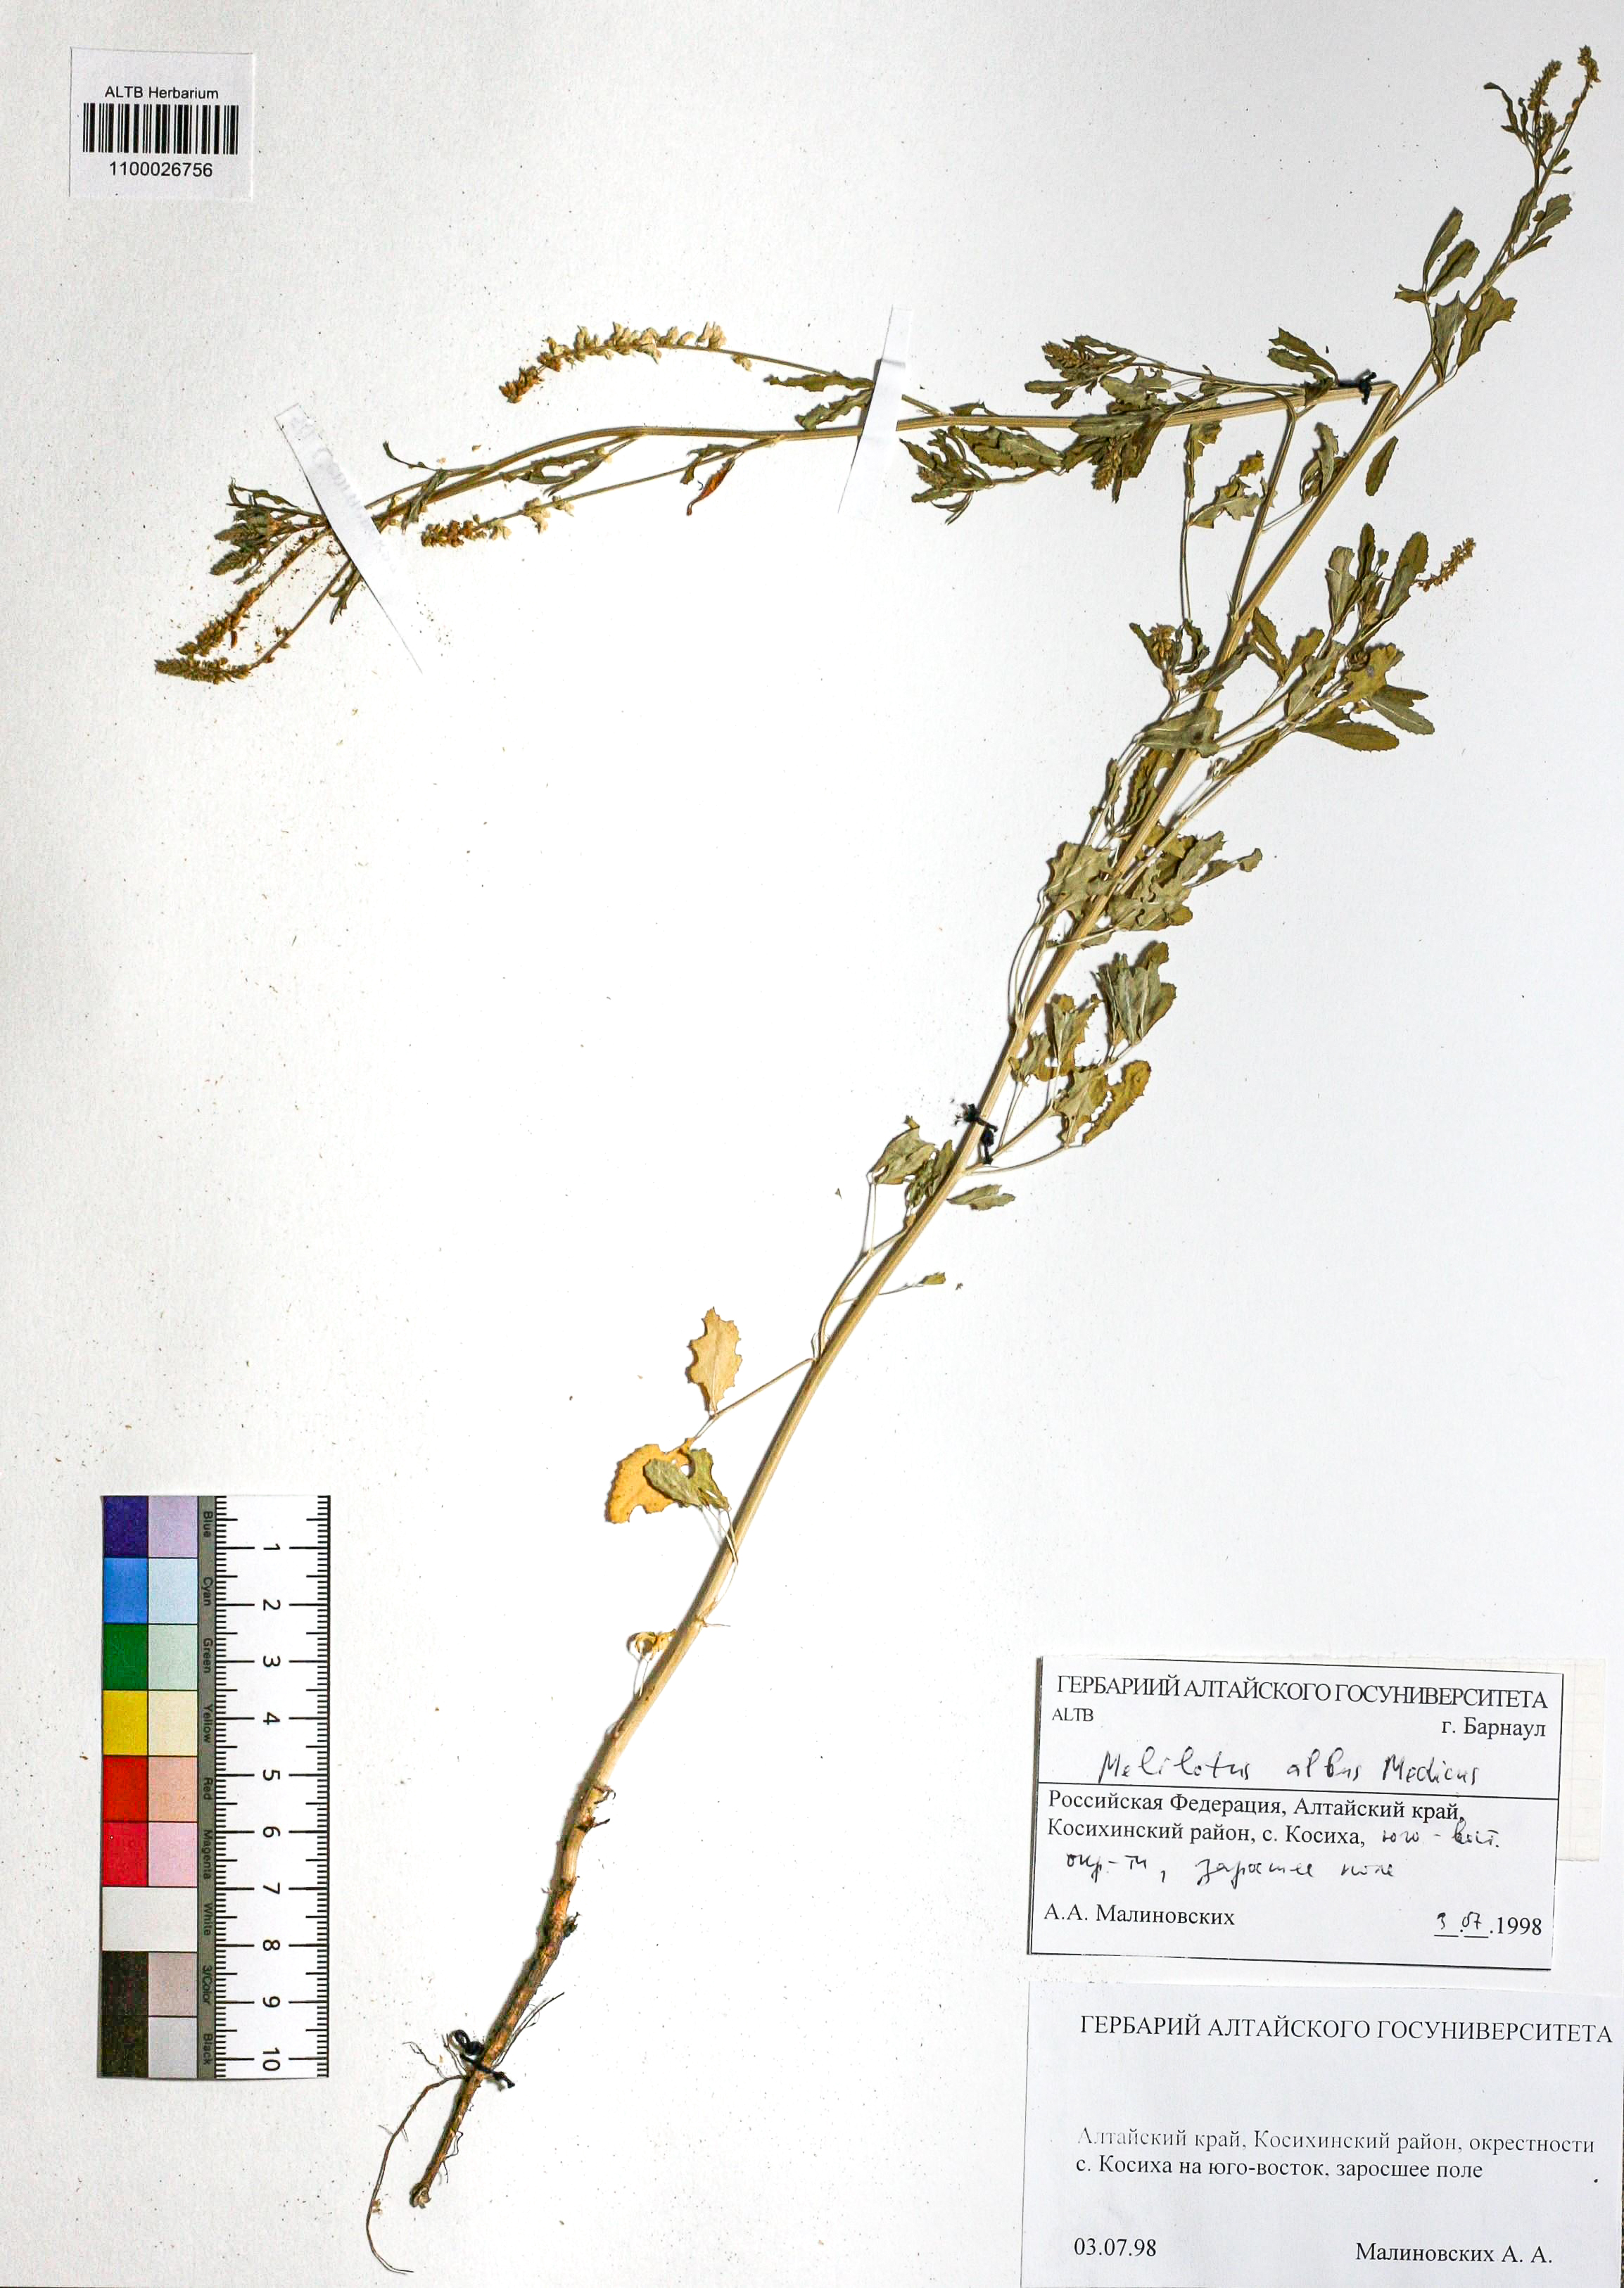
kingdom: Plantae
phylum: Tracheophyta
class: Magnoliopsida
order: Fabales
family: Fabaceae
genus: Melilotus
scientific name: Melilotus albus
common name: White melilot
